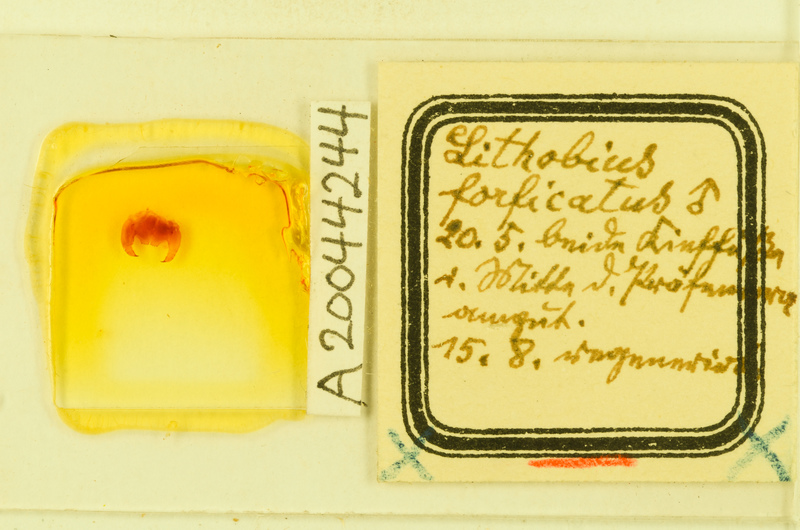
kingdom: Animalia
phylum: Arthropoda
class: Chilopoda
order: Lithobiomorpha
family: Lithobiidae
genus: Lithobius
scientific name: Lithobius forficatus
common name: Centipede
